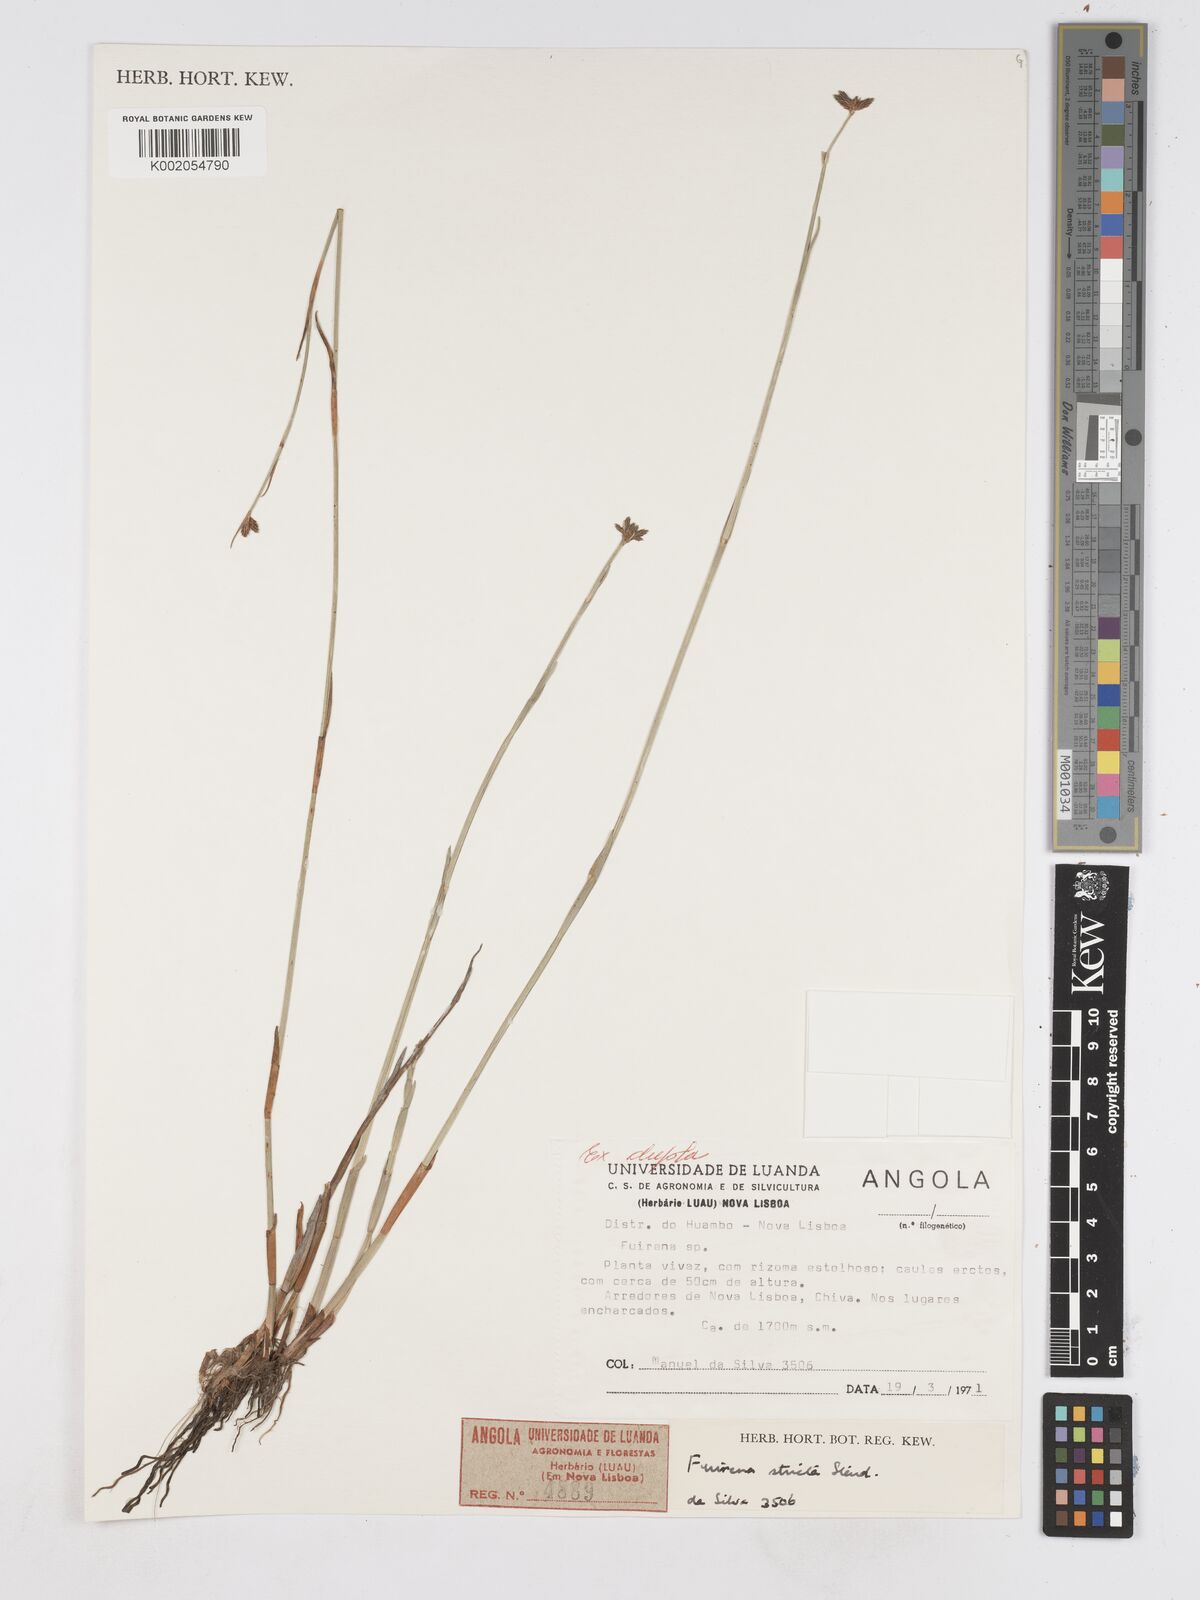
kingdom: Plantae
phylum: Tracheophyta
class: Liliopsida
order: Poales
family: Cyperaceae
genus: Fuirena
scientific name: Fuirena stricta
